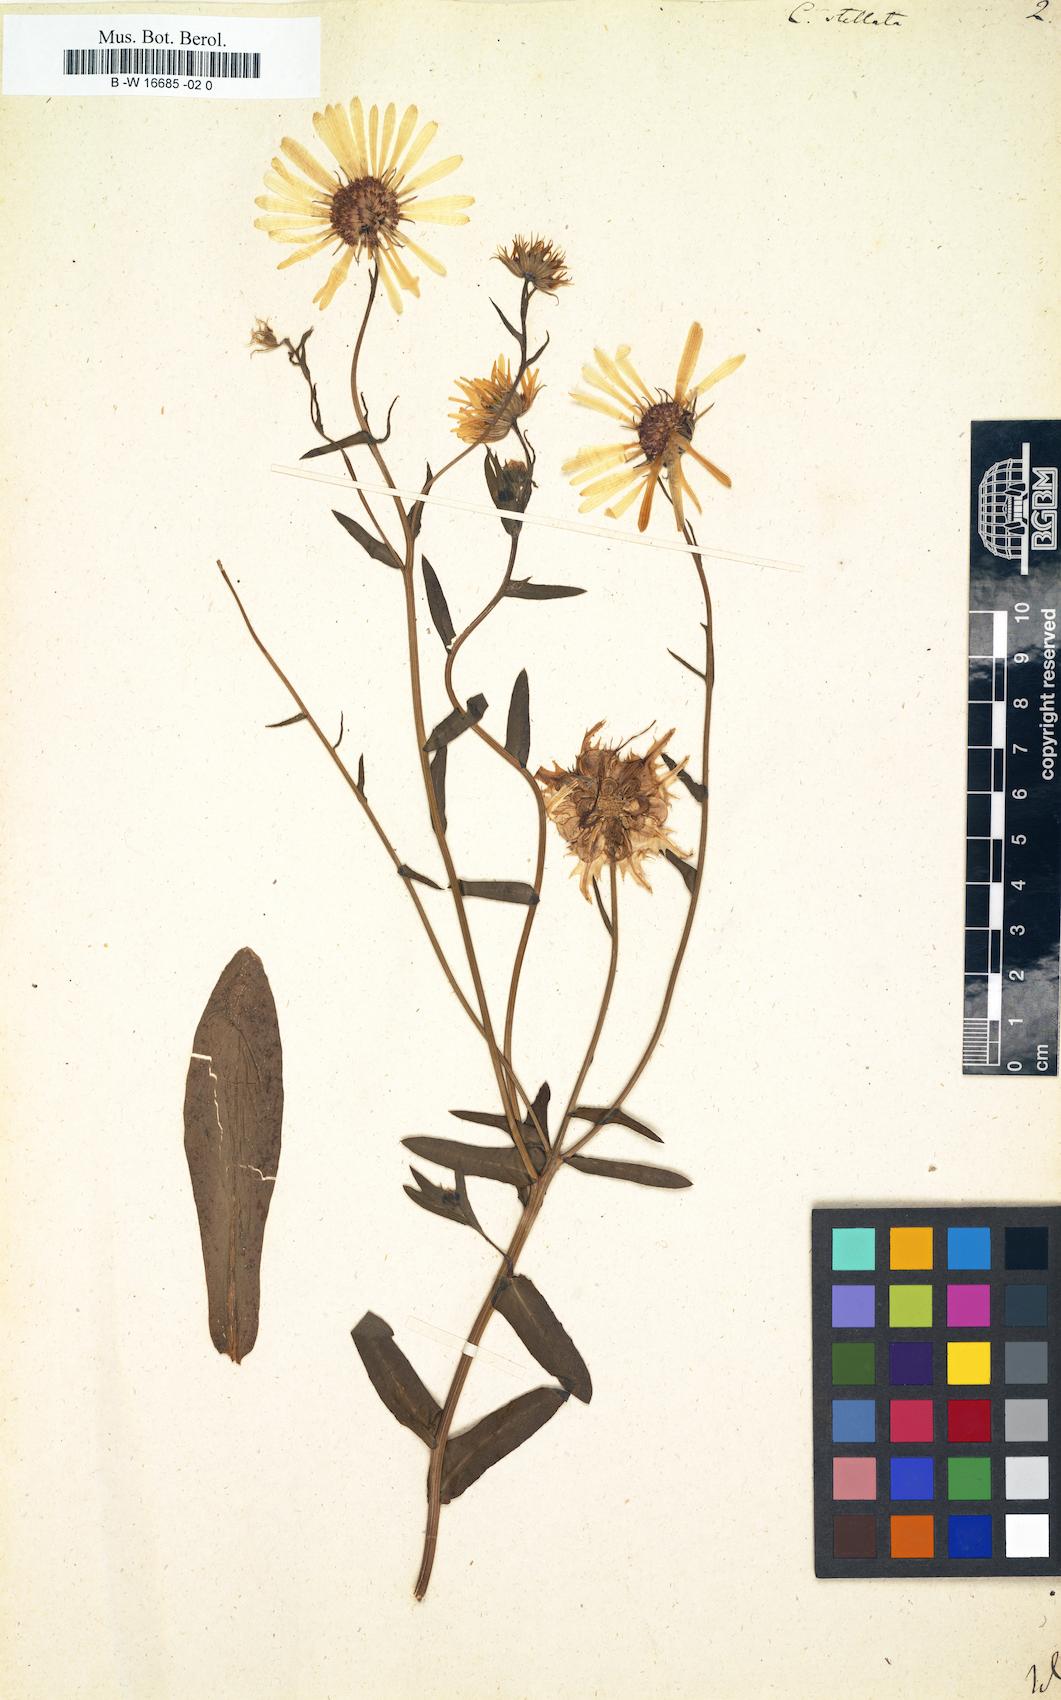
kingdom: Plantae
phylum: Tracheophyta
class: Magnoliopsida
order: Asterales
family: Asteraceae
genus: Calendula
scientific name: Calendula stellata
